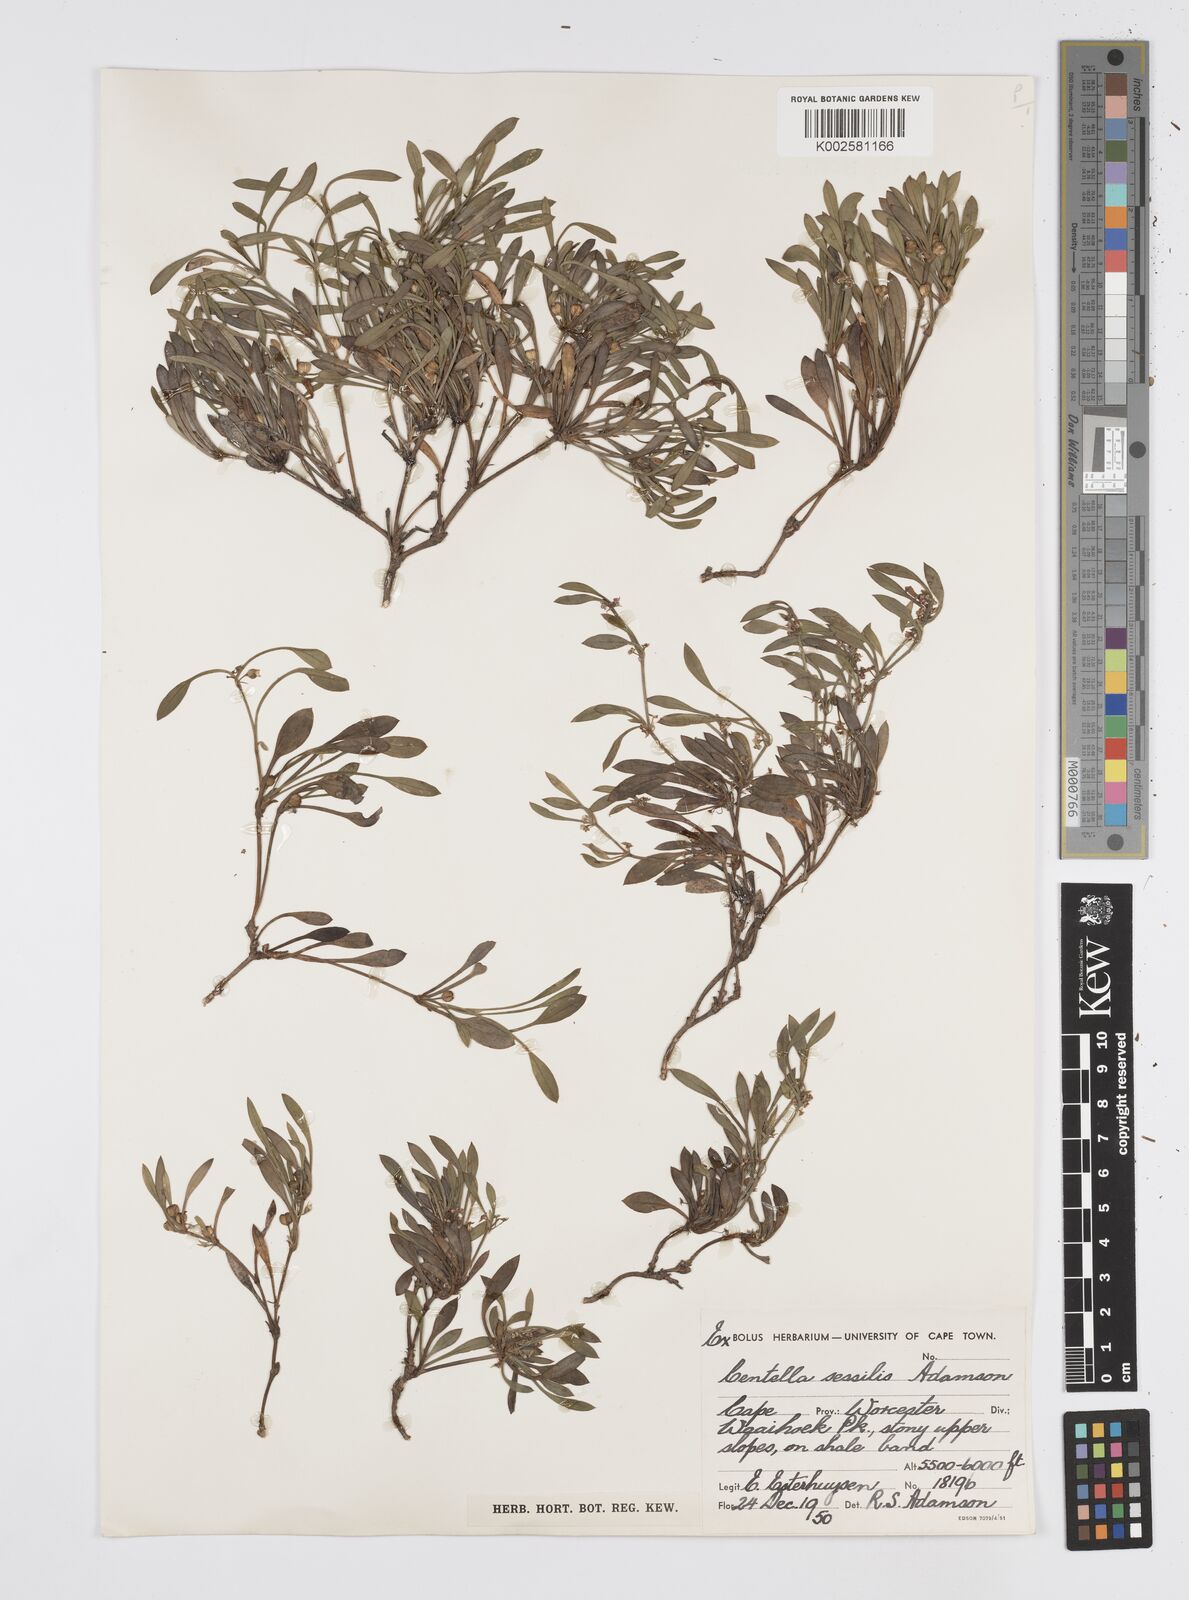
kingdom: Plantae
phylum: Tracheophyta
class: Magnoliopsida
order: Apiales
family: Apiaceae
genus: Centella
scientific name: Centella sessilis
